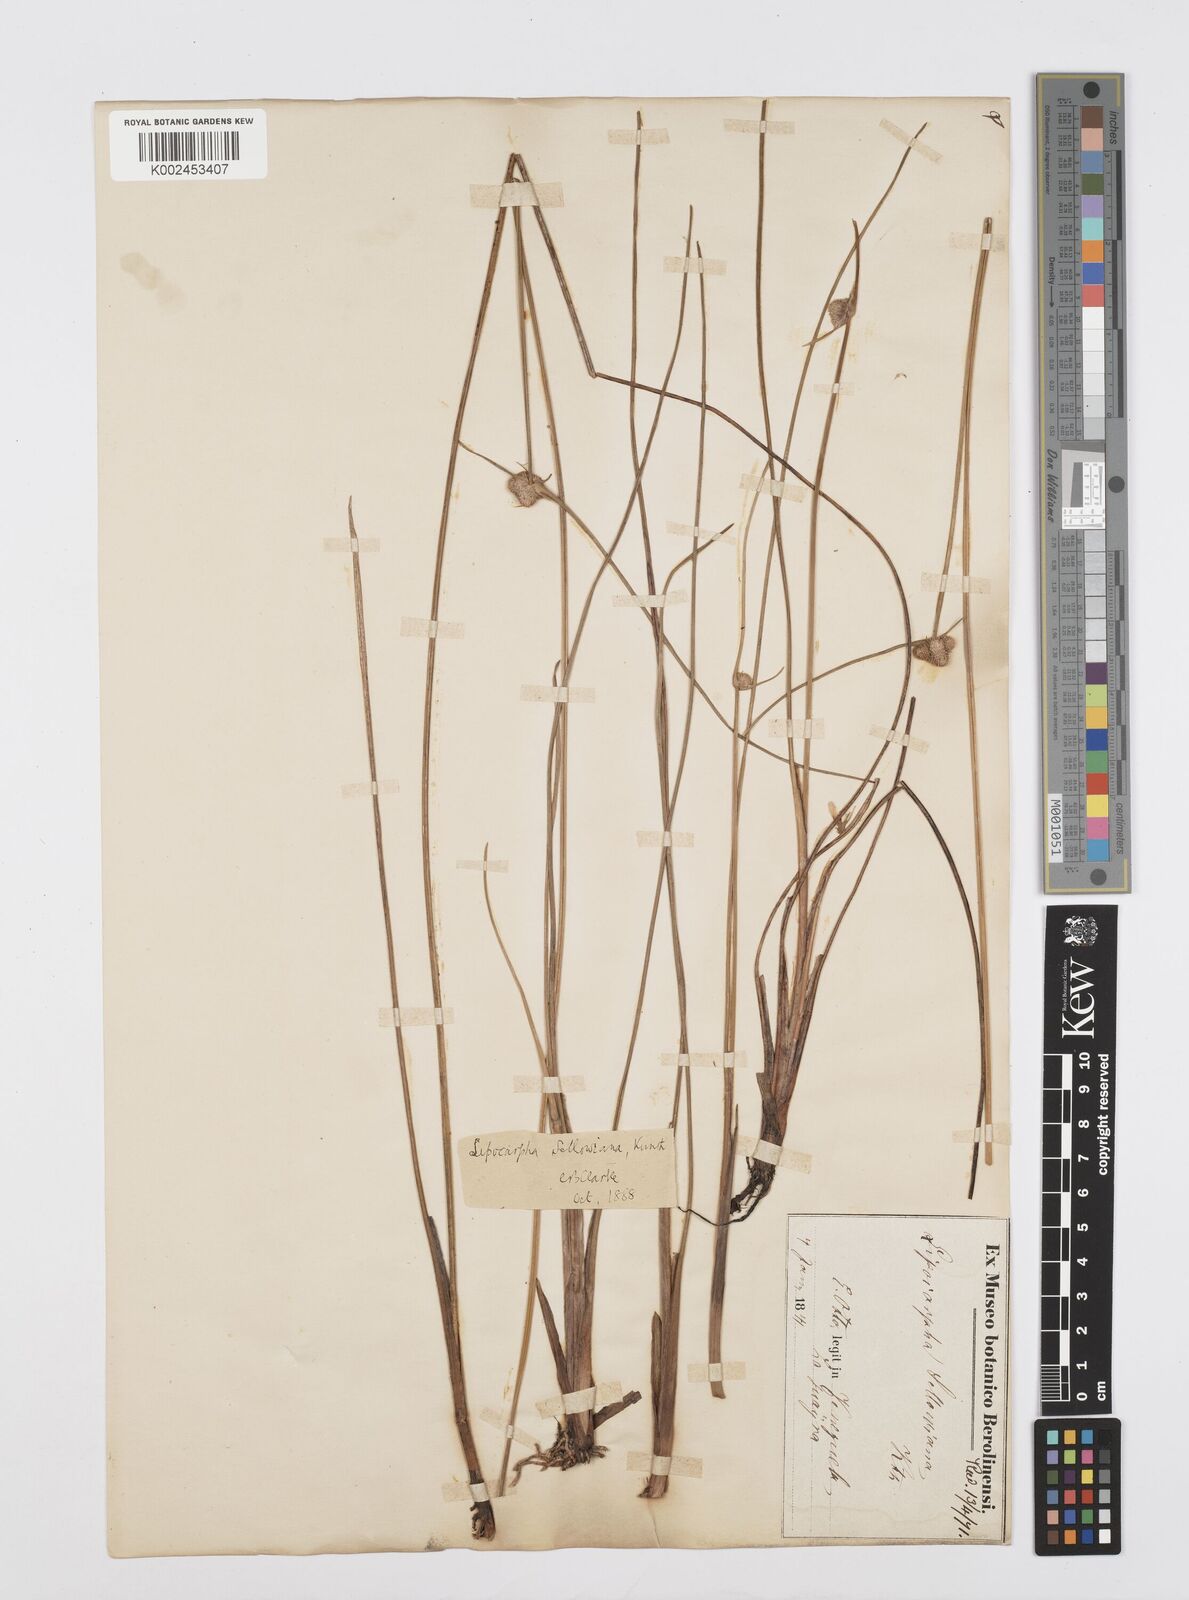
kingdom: Plantae
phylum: Tracheophyta
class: Liliopsida
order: Poales
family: Cyperaceae
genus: Cyperus
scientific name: Cyperus lanceolatus
